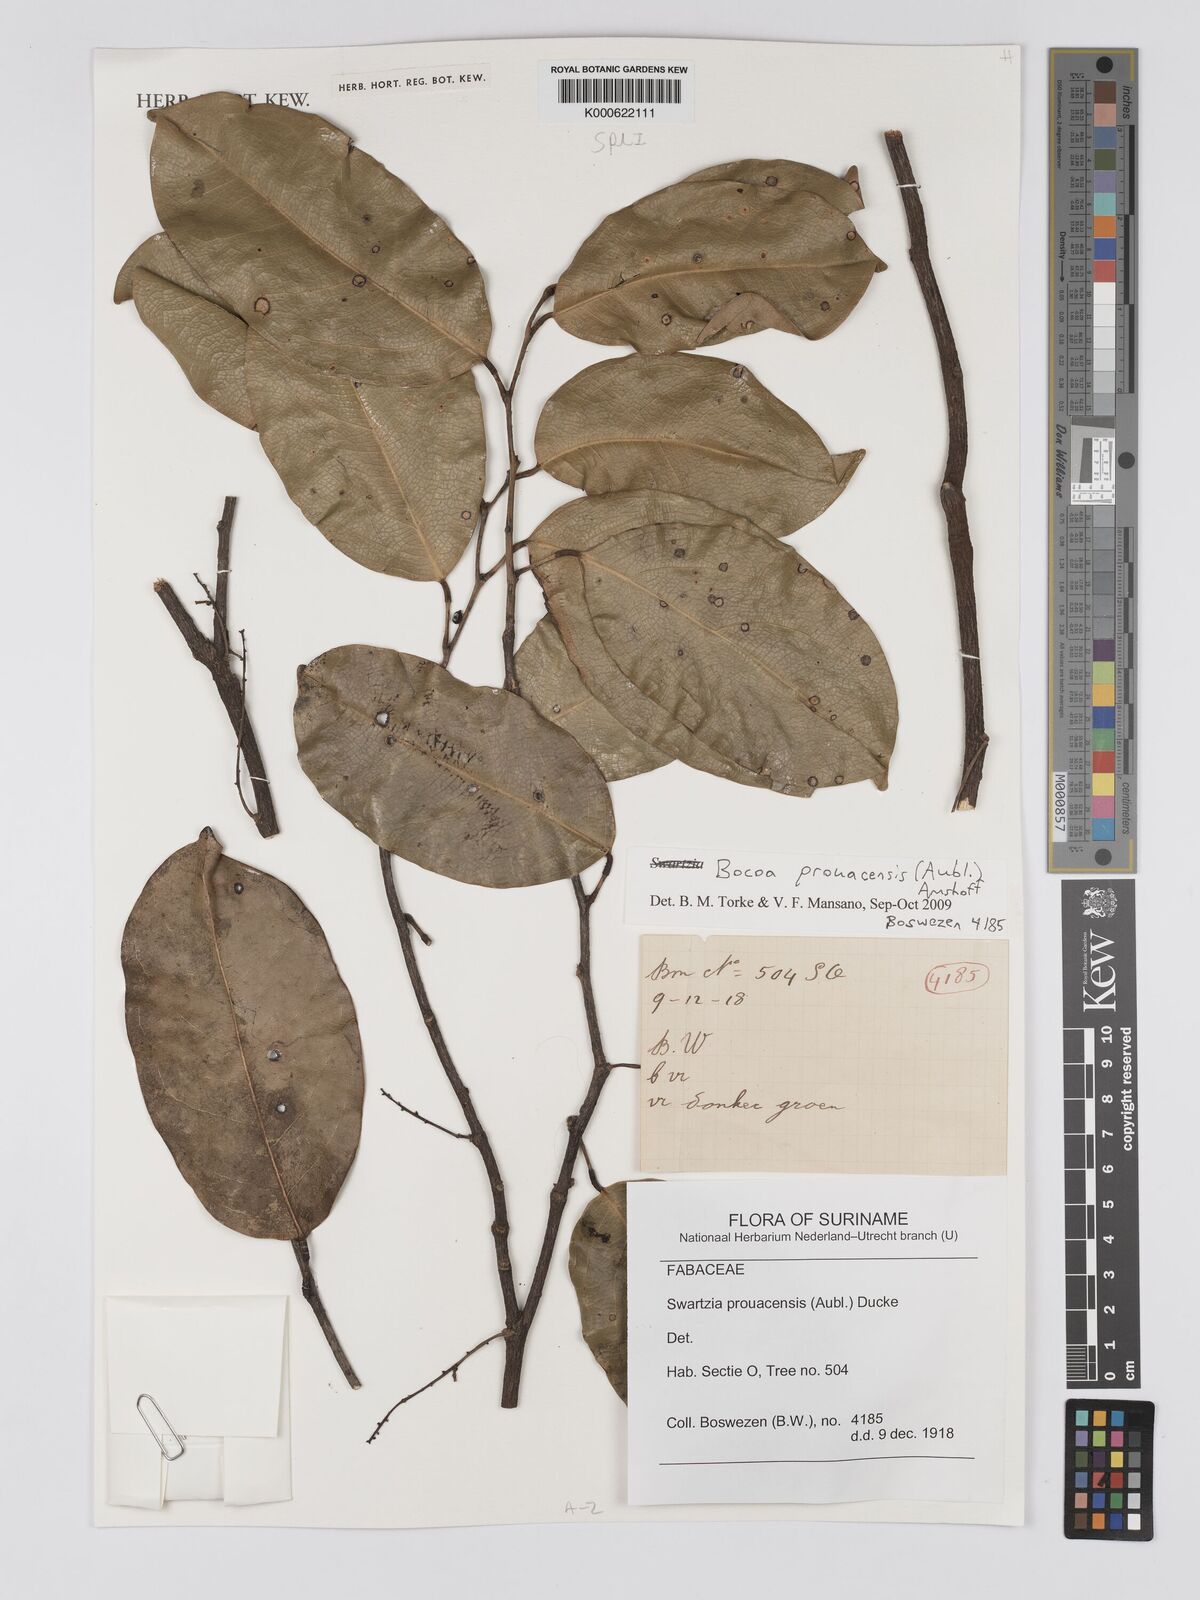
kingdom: Plantae
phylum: Tracheophyta
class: Magnoliopsida
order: Fabales
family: Fabaceae
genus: Bocoa
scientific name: Bocoa prouacensis
